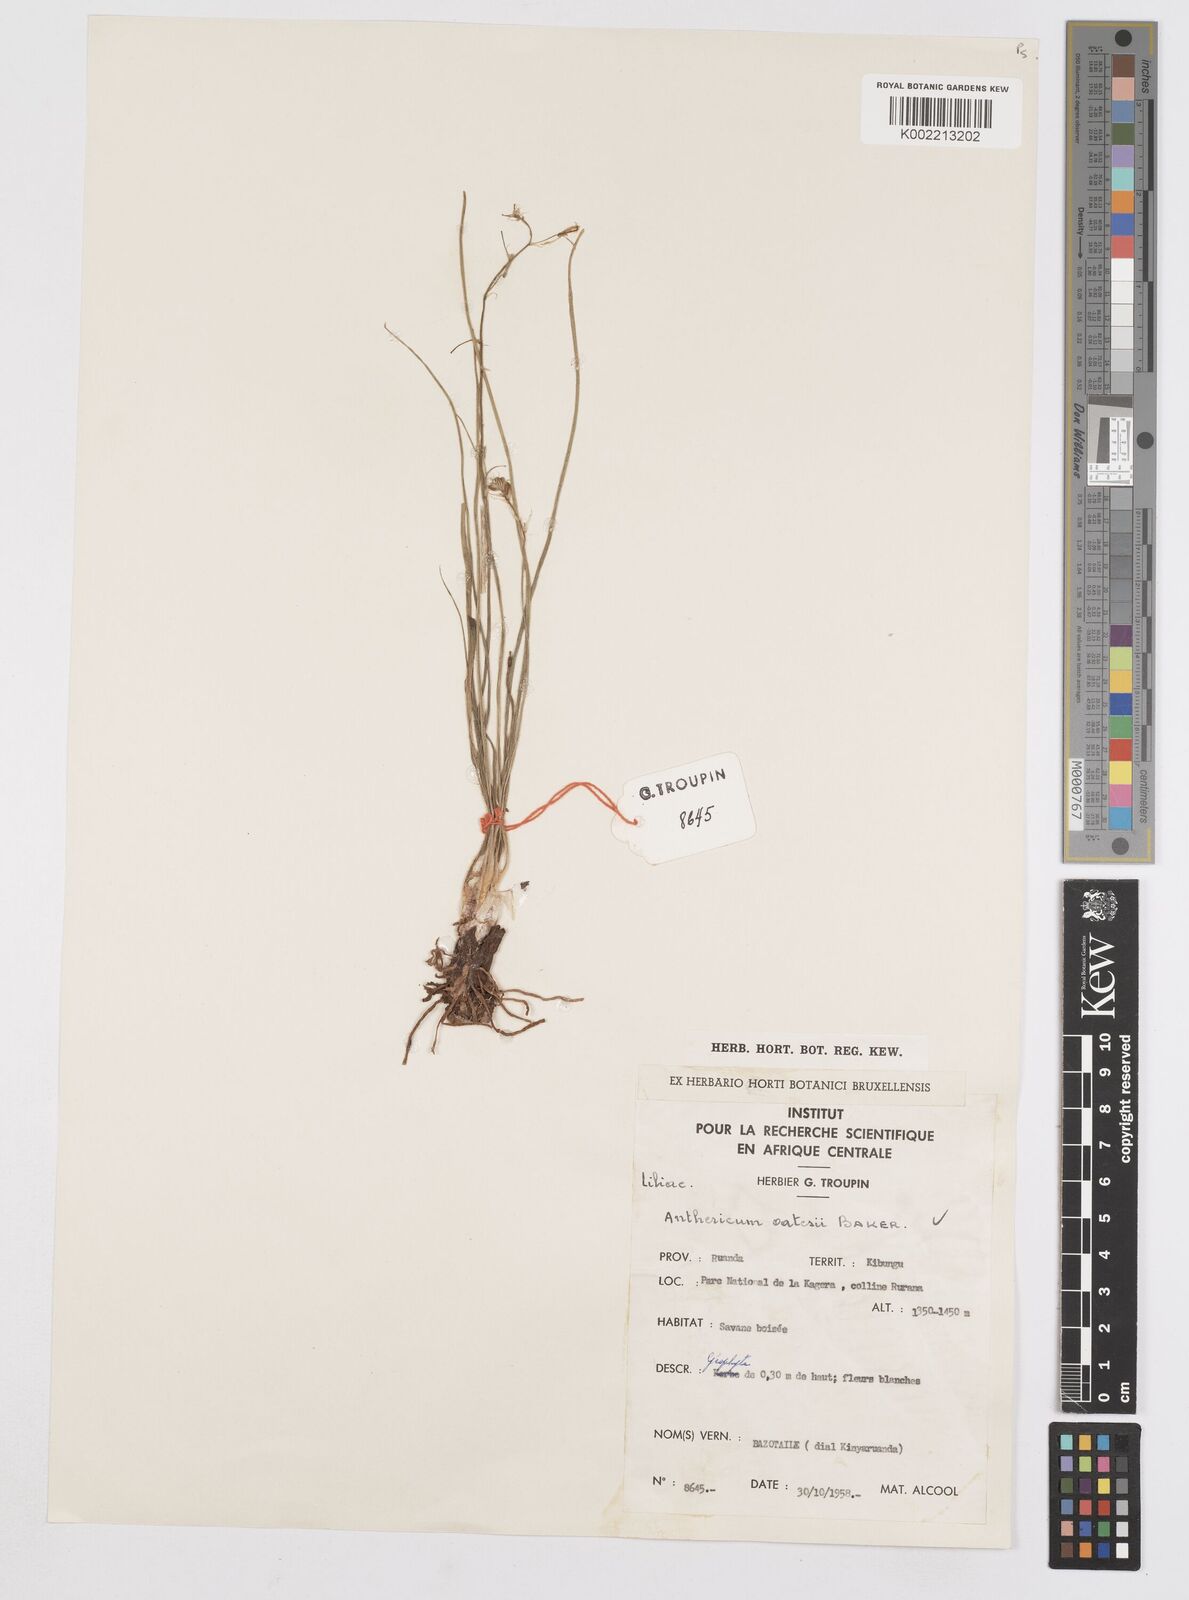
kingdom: Plantae
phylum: Tracheophyta
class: Liliopsida
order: Asparagales
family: Asphodelaceae
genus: Trachyandra
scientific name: Trachyandra saltii
